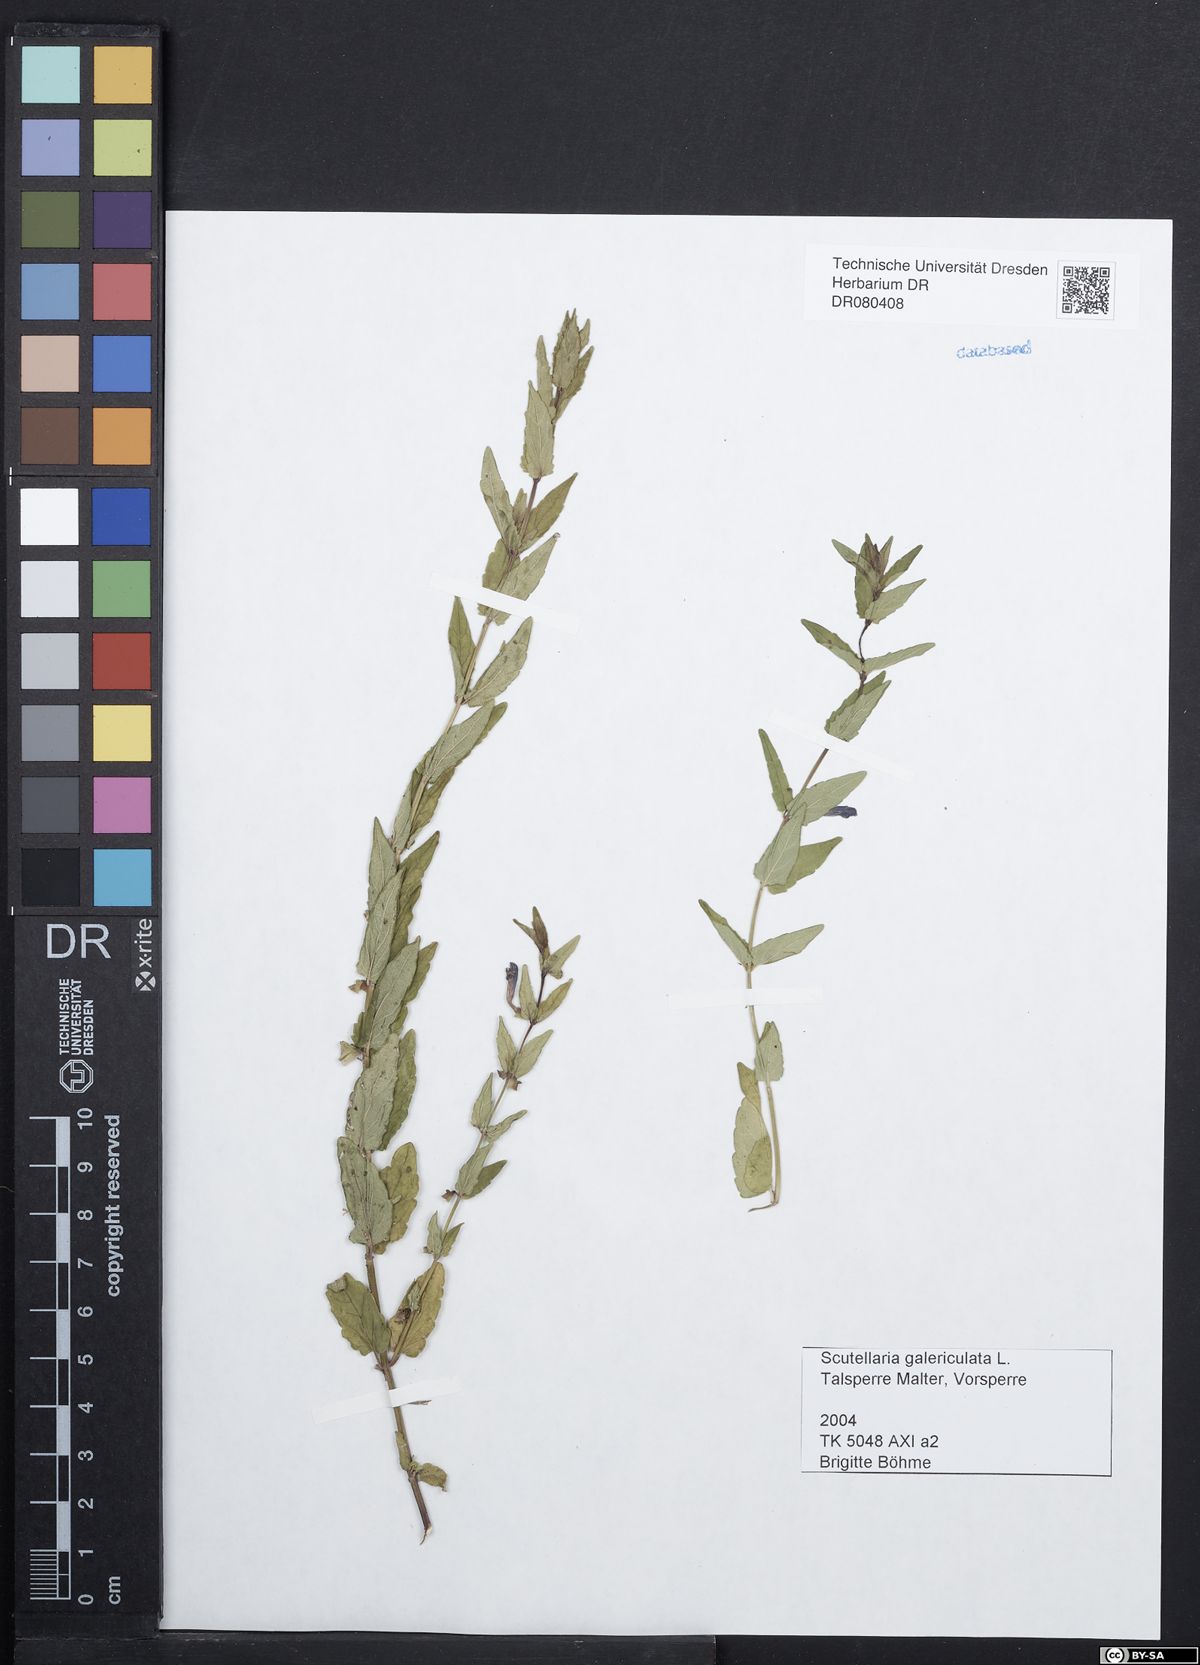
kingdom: Plantae
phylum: Tracheophyta
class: Magnoliopsida
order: Lamiales
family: Lamiaceae
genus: Scutellaria
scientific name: Scutellaria galericulata
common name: Skullcap
